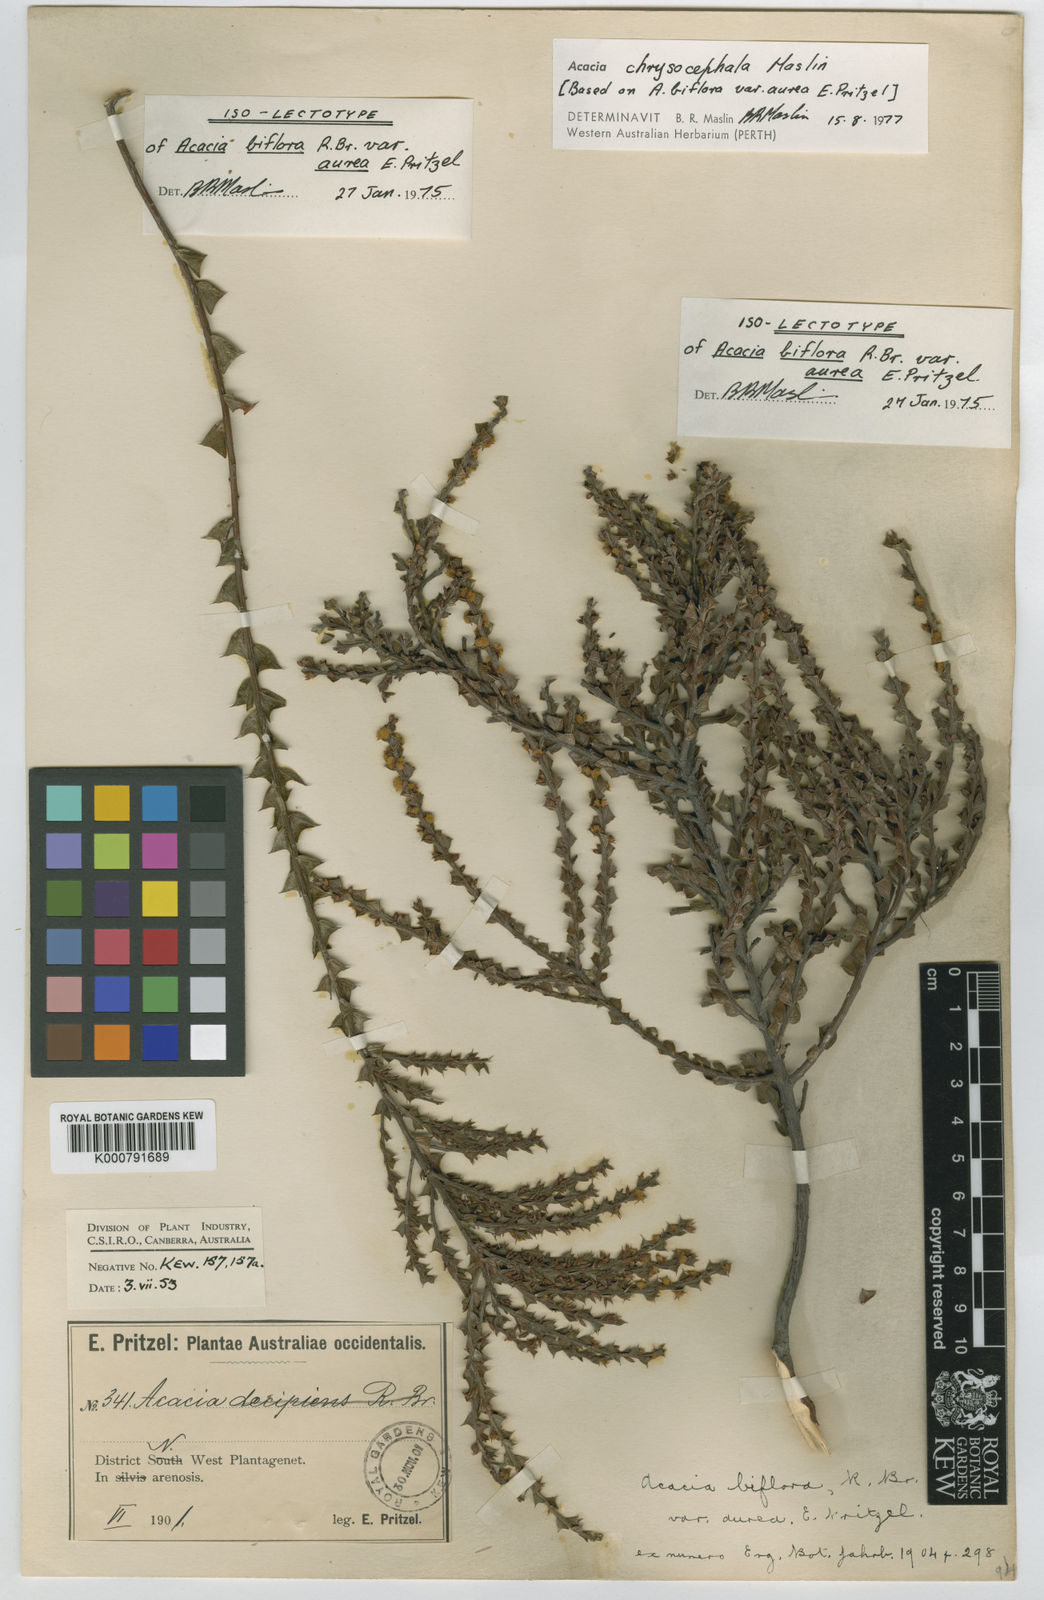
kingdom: Plantae
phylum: Tracheophyta
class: Magnoliopsida
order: Fabales
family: Fabaceae
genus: Acacia
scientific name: Acacia chrysocephala
